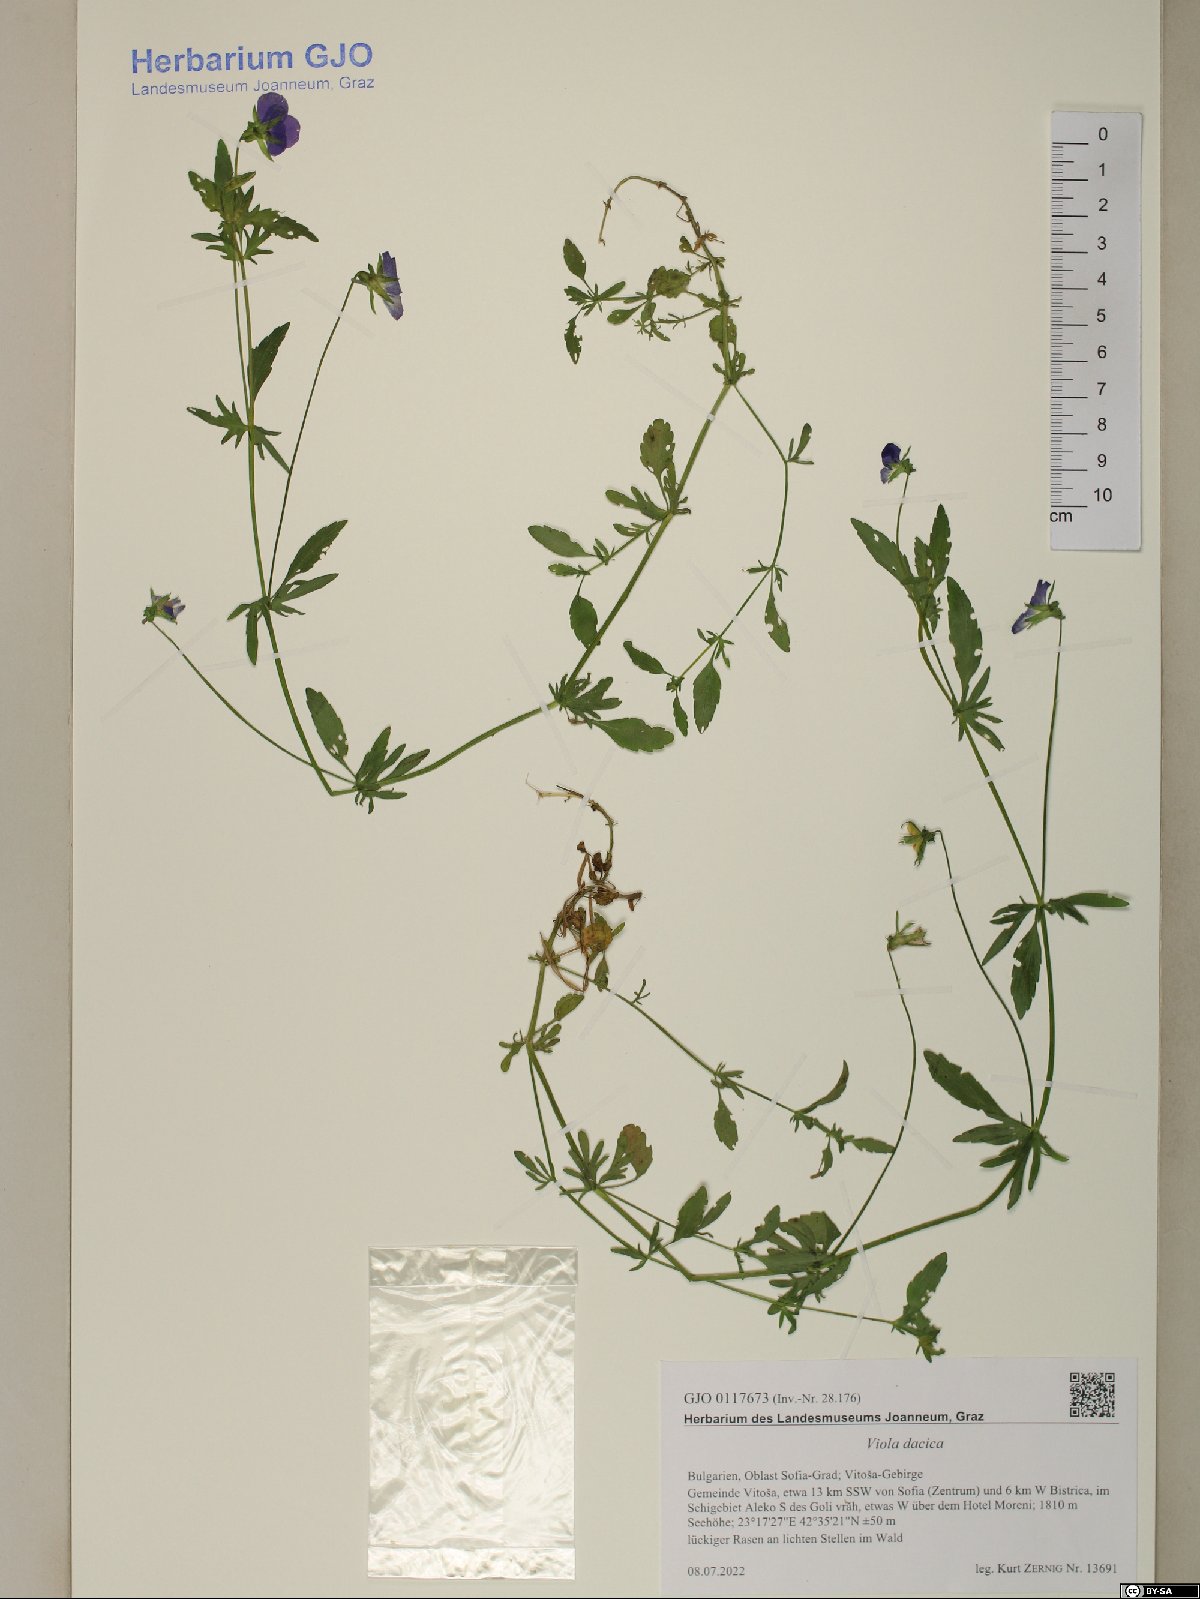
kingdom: Plantae
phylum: Tracheophyta
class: Magnoliopsida
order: Malpighiales
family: Violaceae
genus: Viola
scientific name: Viola dacica
